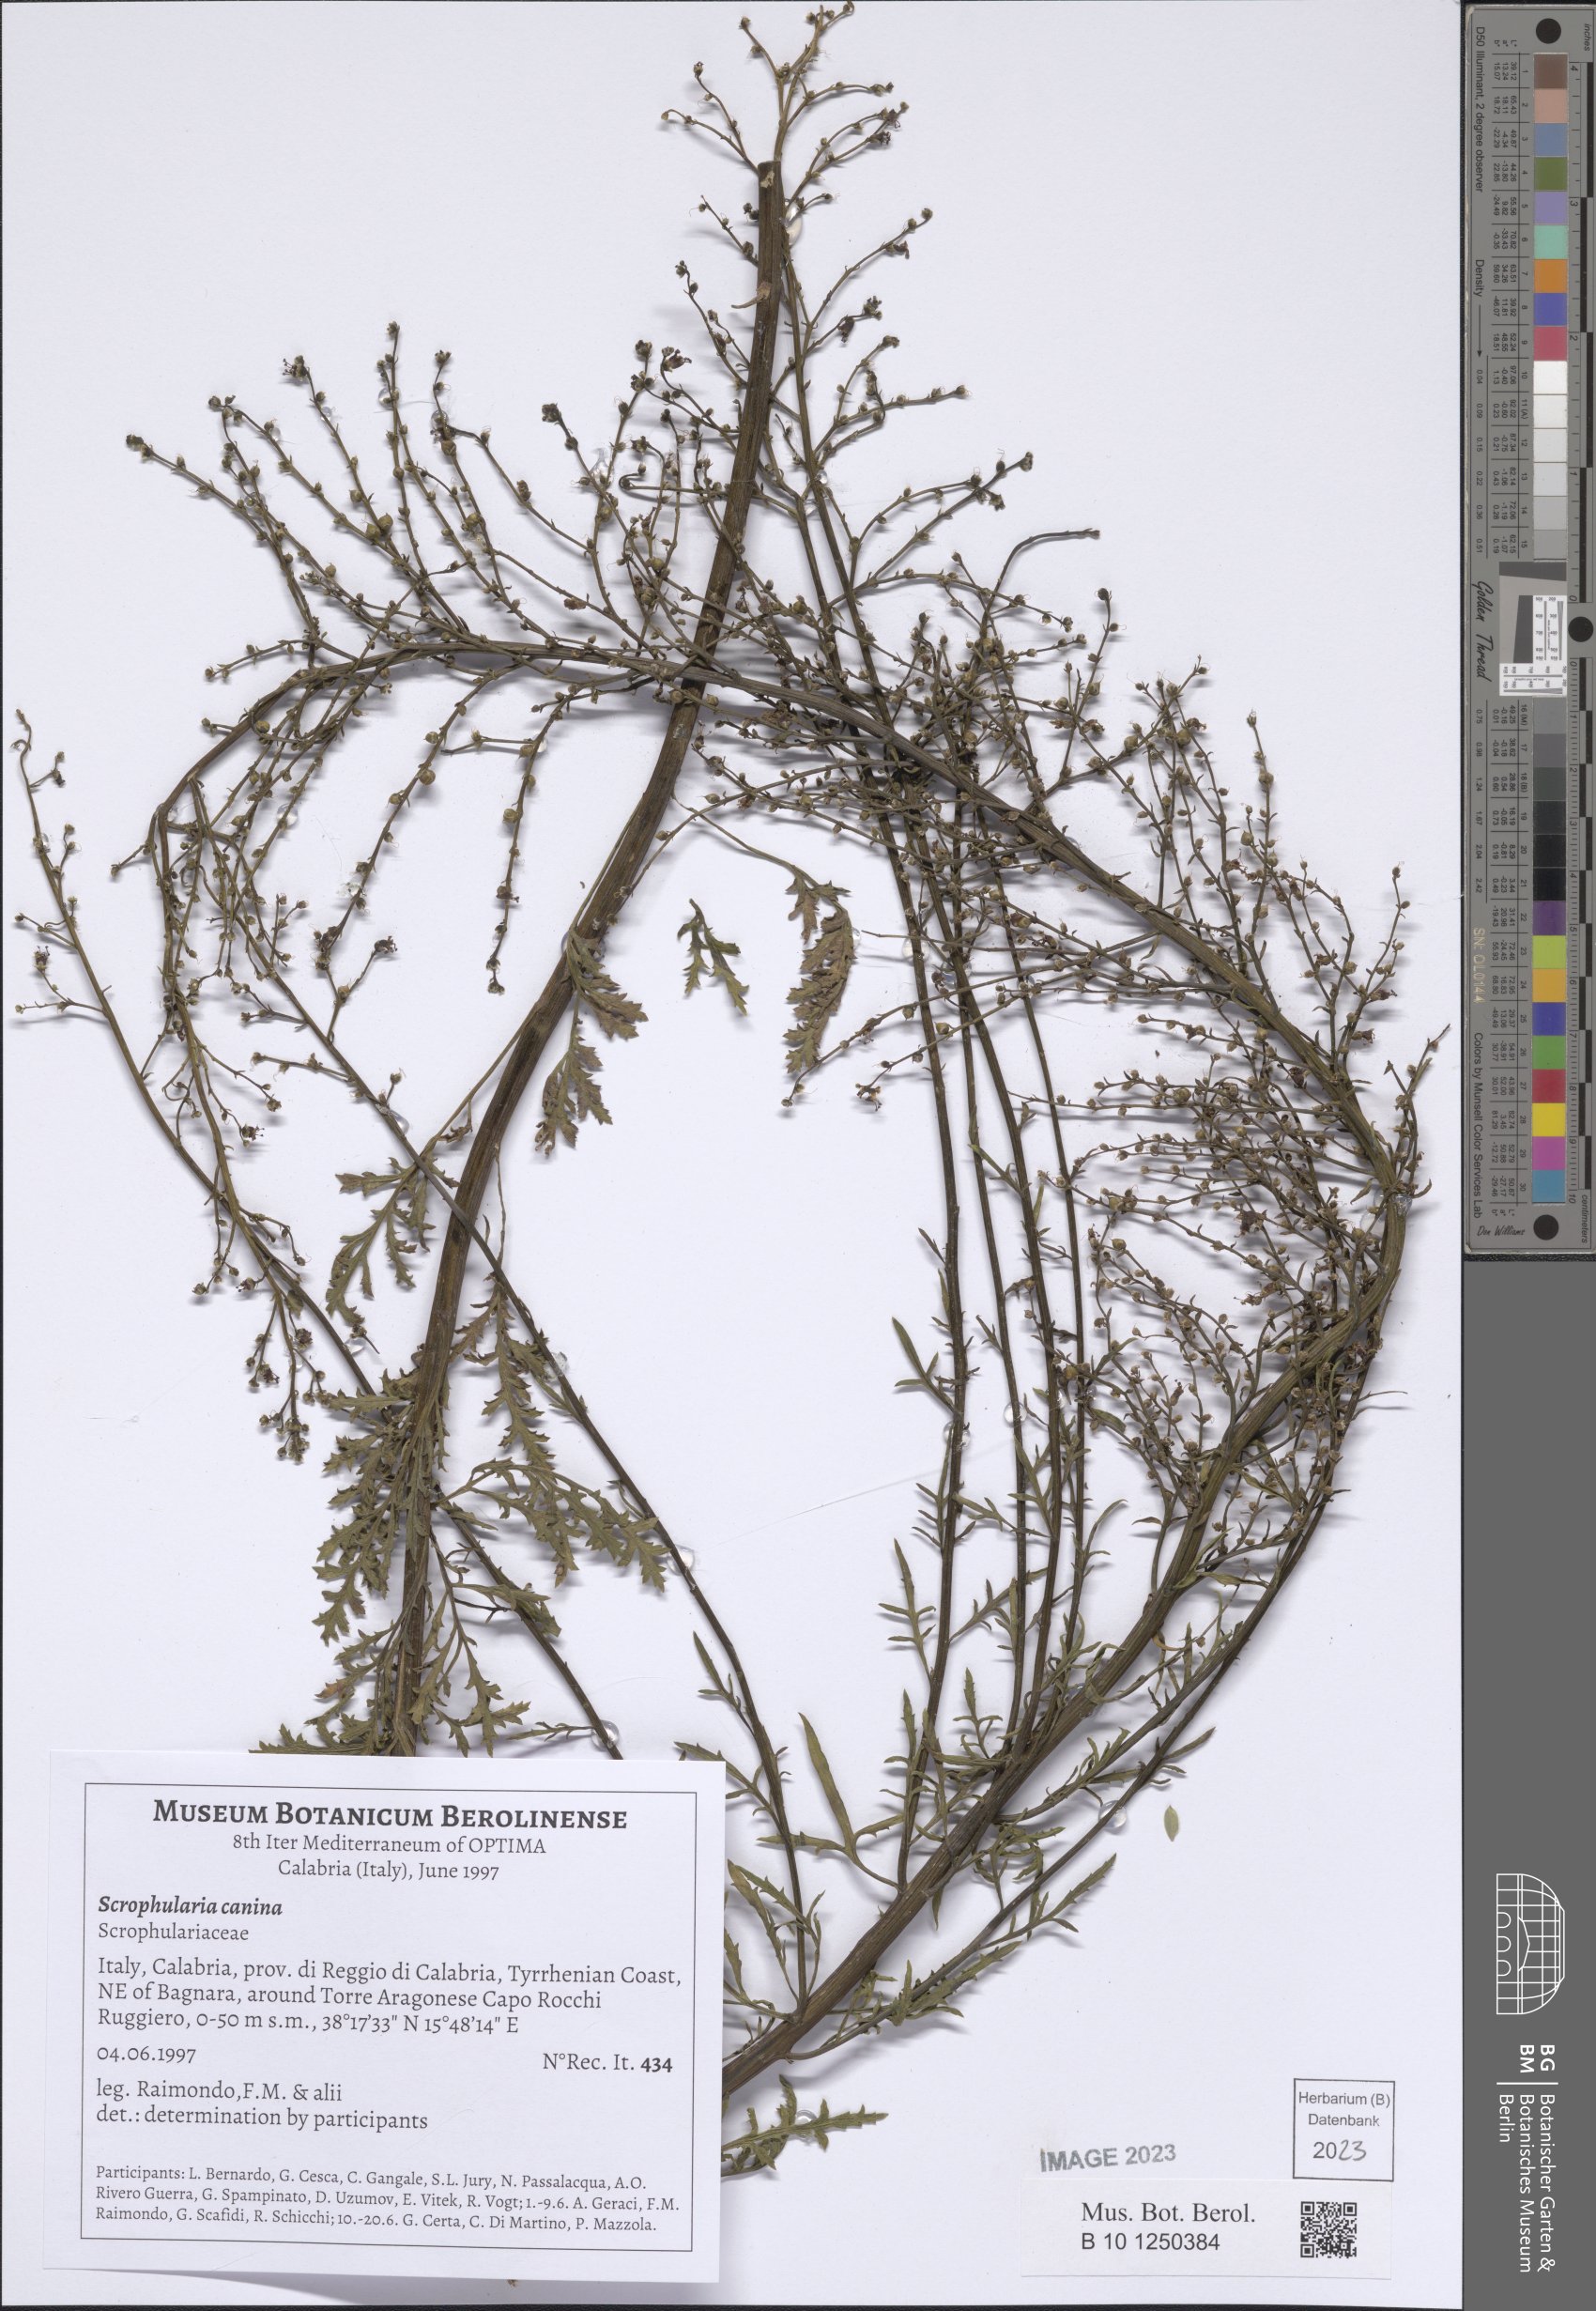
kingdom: Plantae
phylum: Tracheophyta
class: Magnoliopsida
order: Lamiales
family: Scrophulariaceae
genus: Scrophularia
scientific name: Scrophularia canina
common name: French figwort
